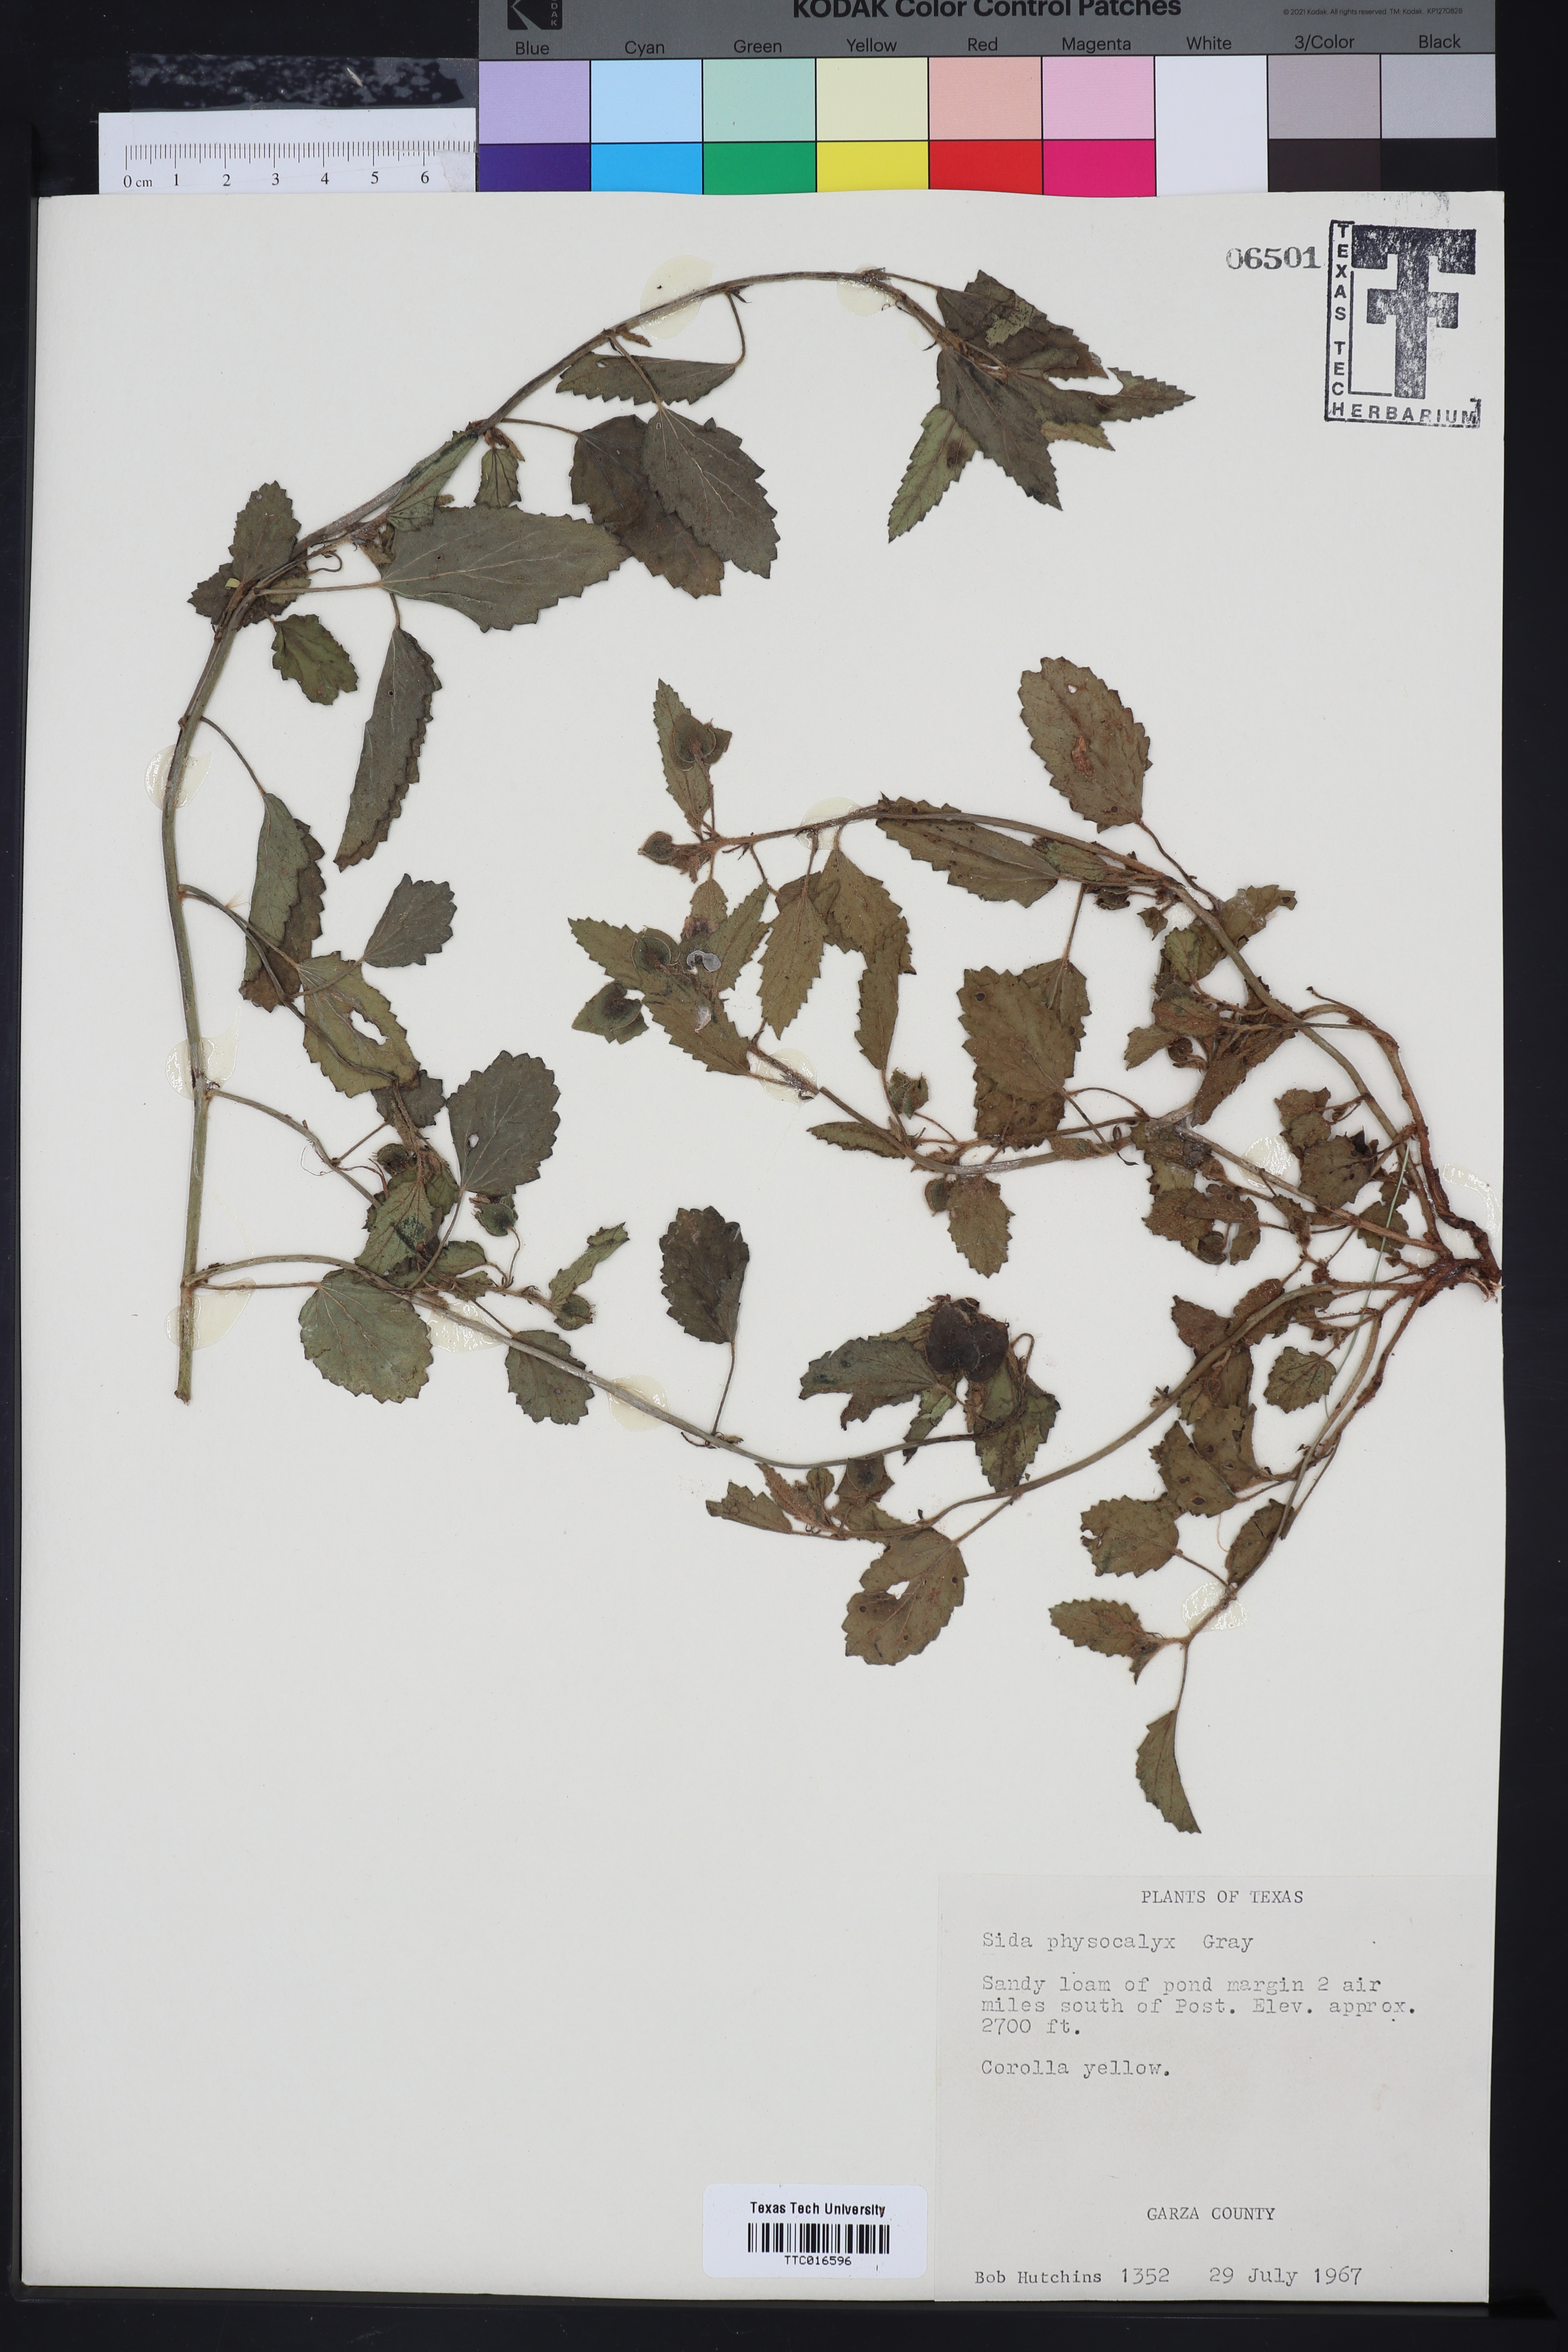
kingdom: Plantae
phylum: Tracheophyta
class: Magnoliopsida
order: Malvales
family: Malvaceae
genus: Rhynchosida
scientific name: Rhynchosida physocalyx
